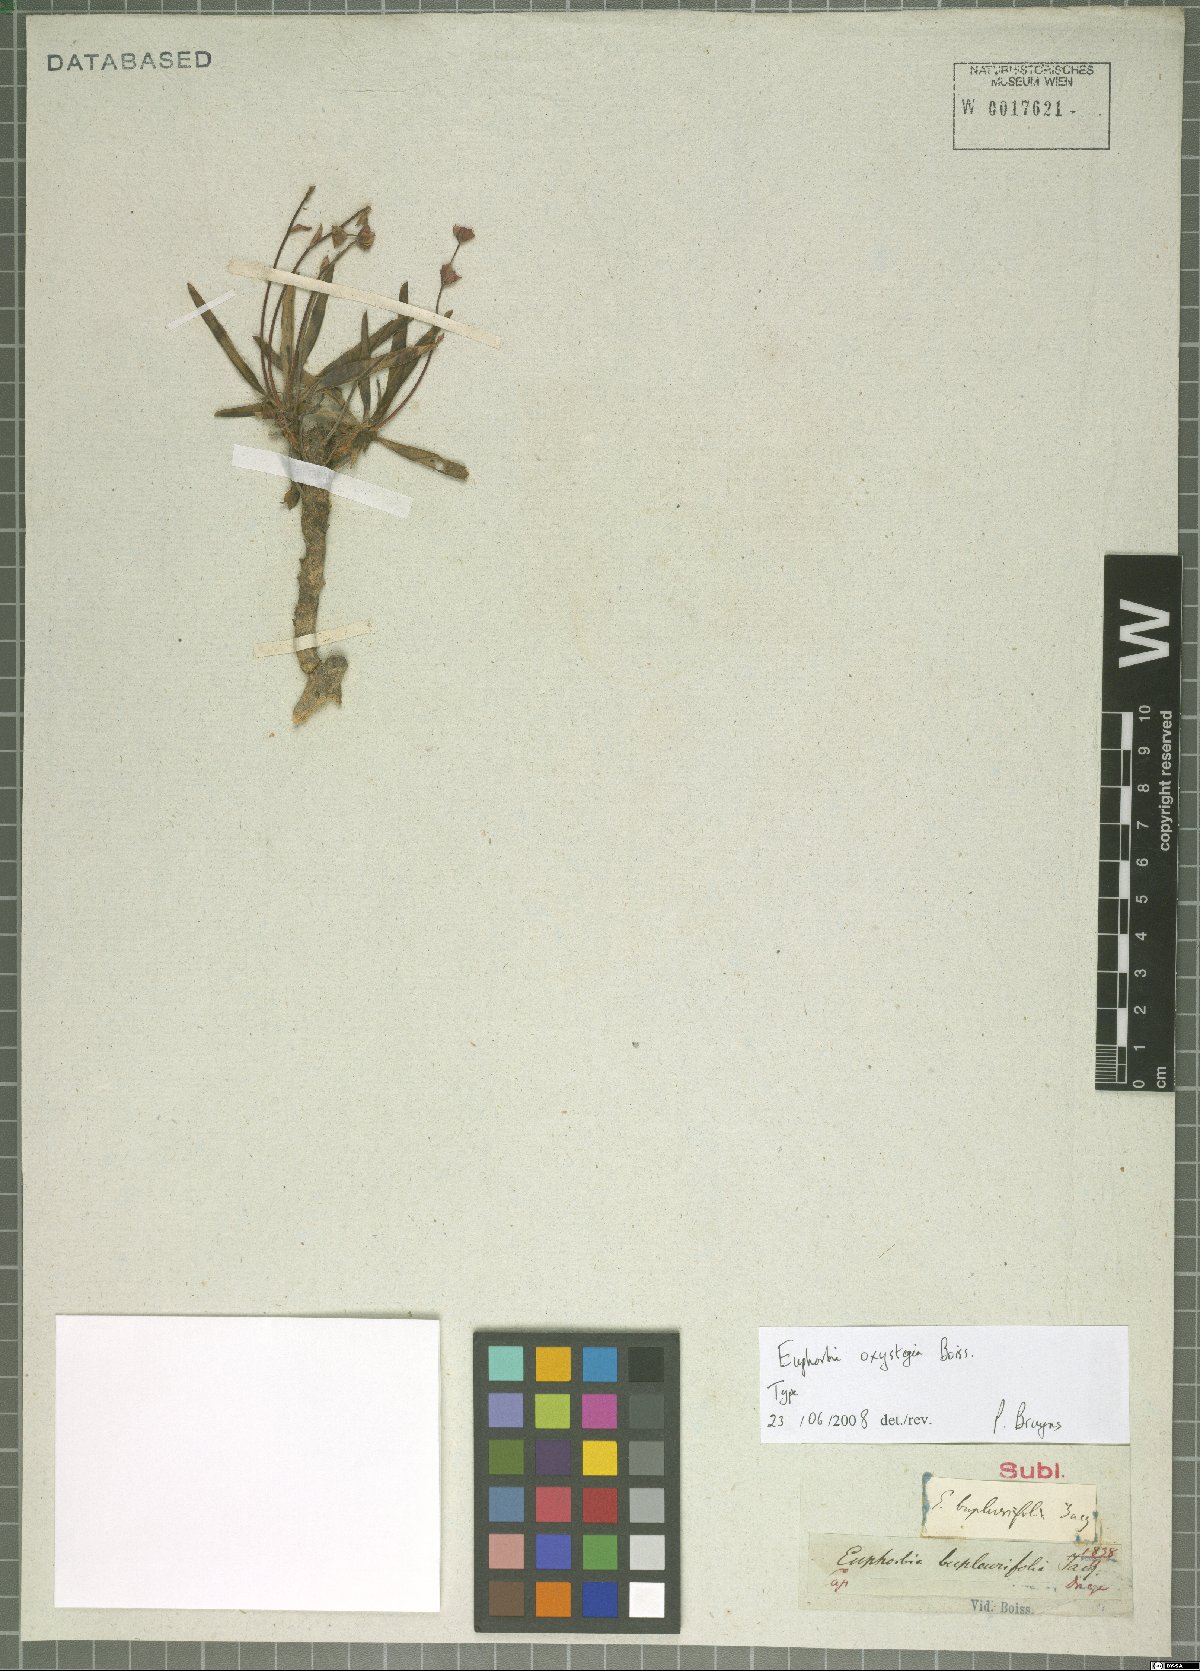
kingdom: Plantae
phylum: Tracheophyta
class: Magnoliopsida
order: Malpighiales
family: Euphorbiaceae
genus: Euphorbia
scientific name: Euphorbia oxystegia
